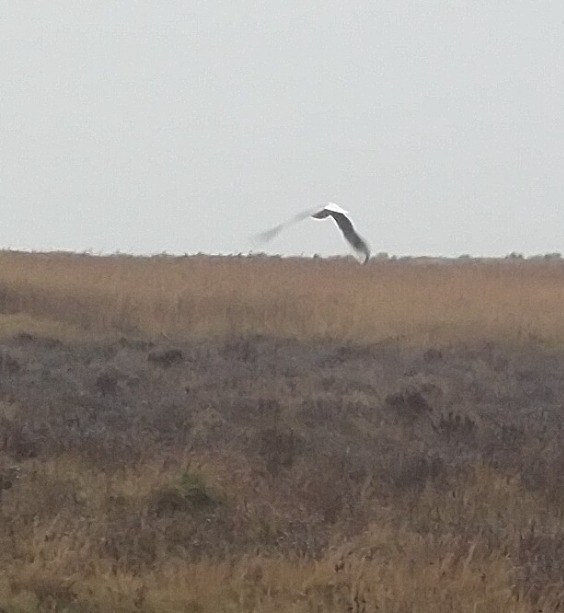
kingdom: Animalia
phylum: Chordata
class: Aves
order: Charadriiformes
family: Laridae
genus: Chroicocephalus
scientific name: Chroicocephalus ridibundus
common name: Hættemåge
